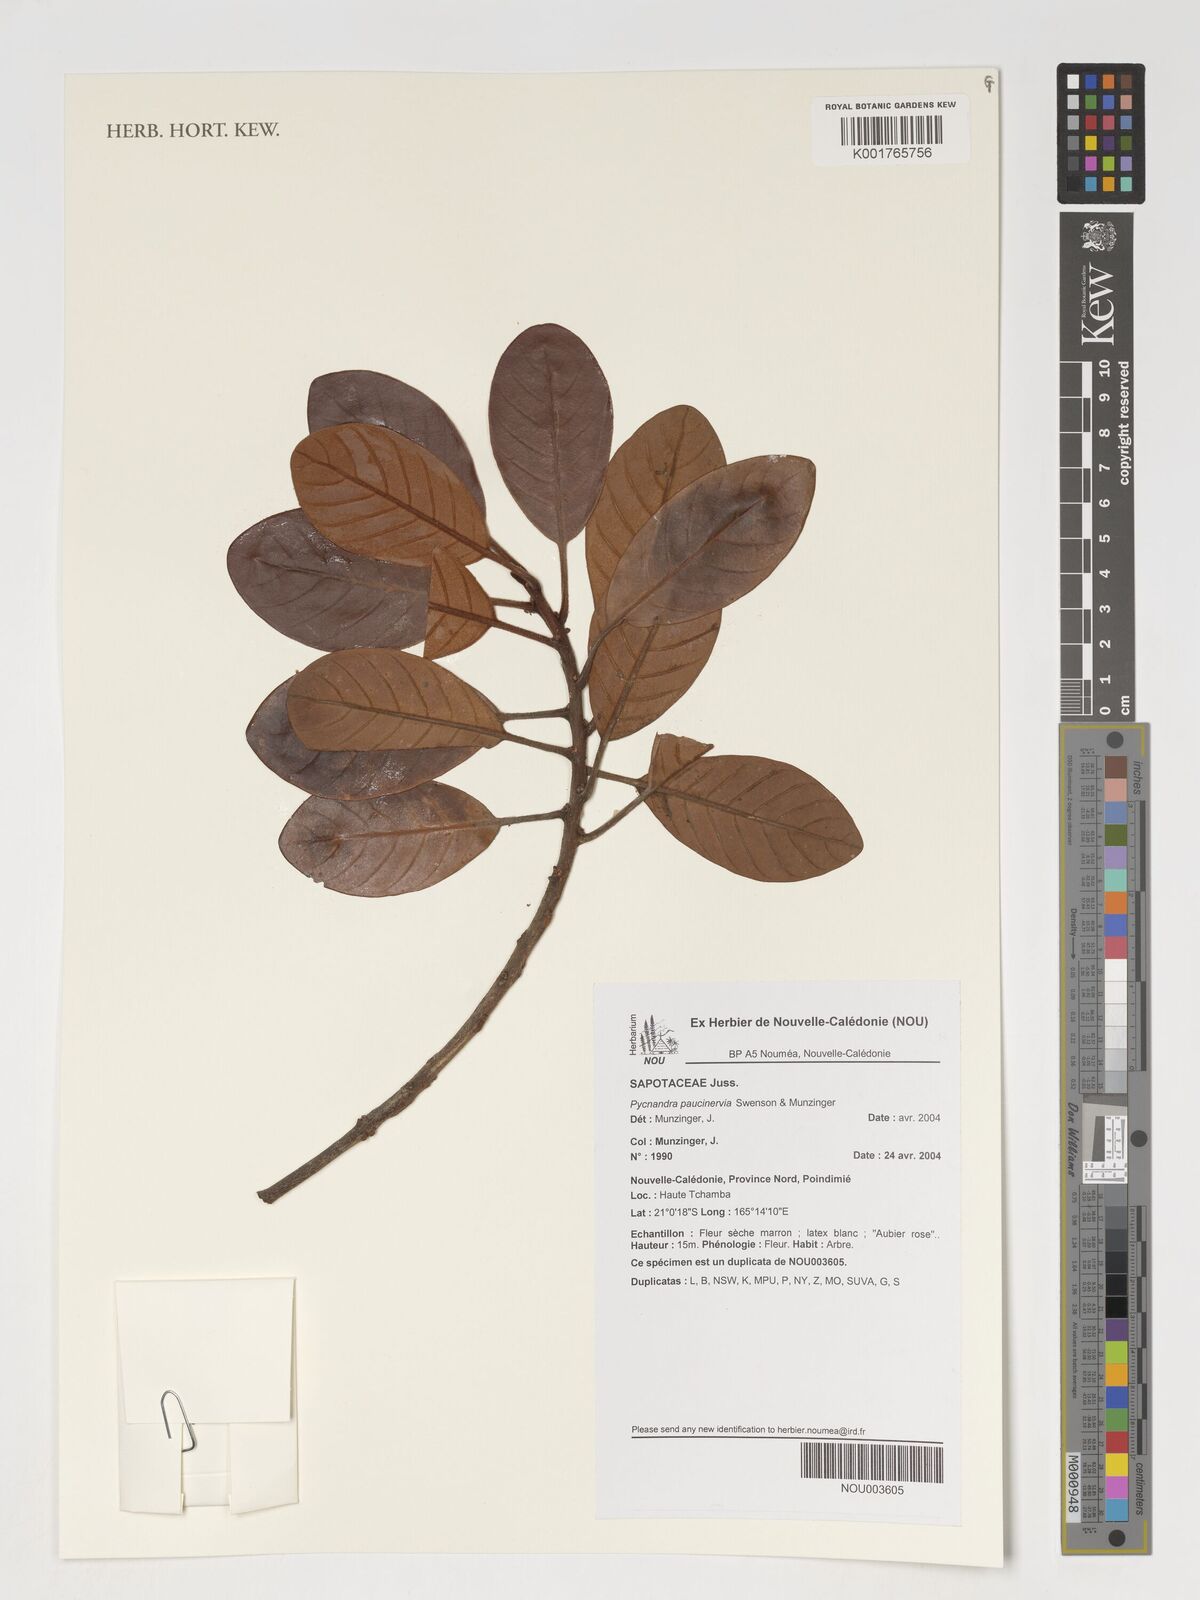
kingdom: Plantae
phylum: Tracheophyta
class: Magnoliopsida
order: Ericales
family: Sapotaceae
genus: Pycnandra
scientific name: Pycnandra paucinervia
